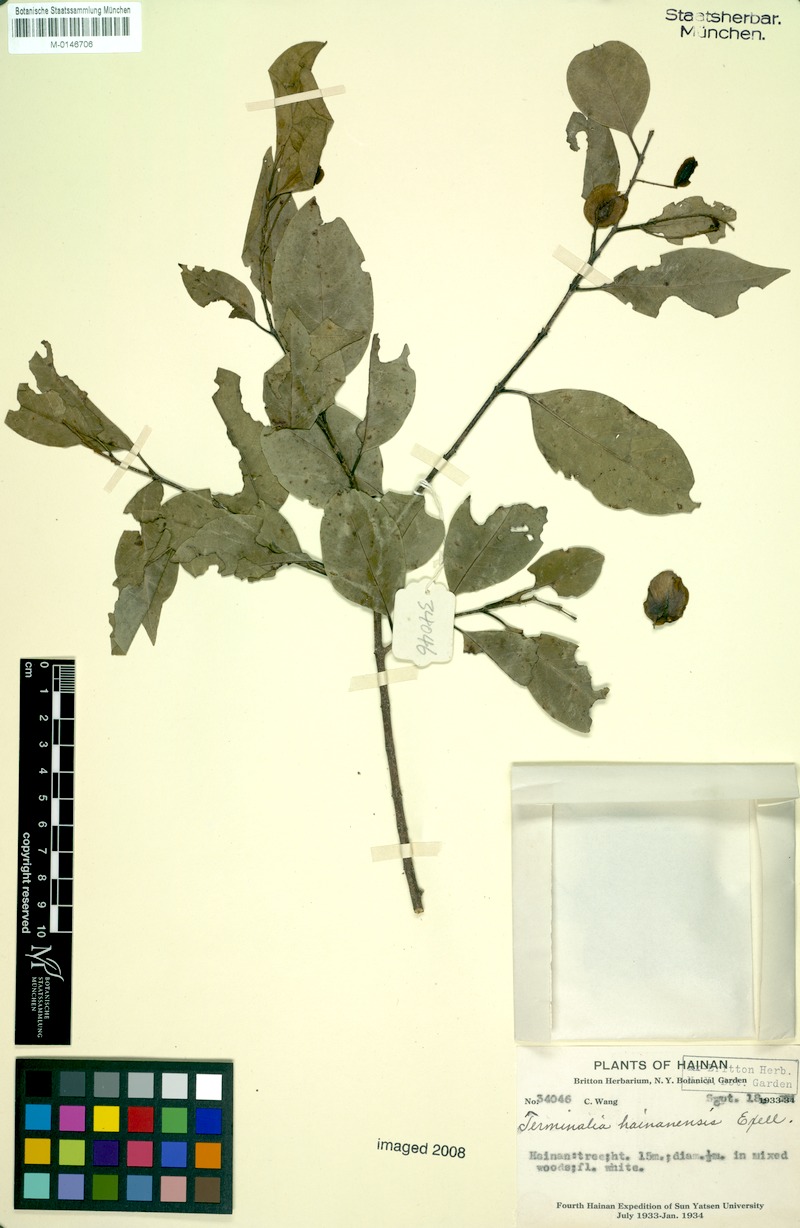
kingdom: Plantae
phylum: Tracheophyta
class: Magnoliopsida
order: Myrtales
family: Combretaceae
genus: Terminalia
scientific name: Terminalia triptera
